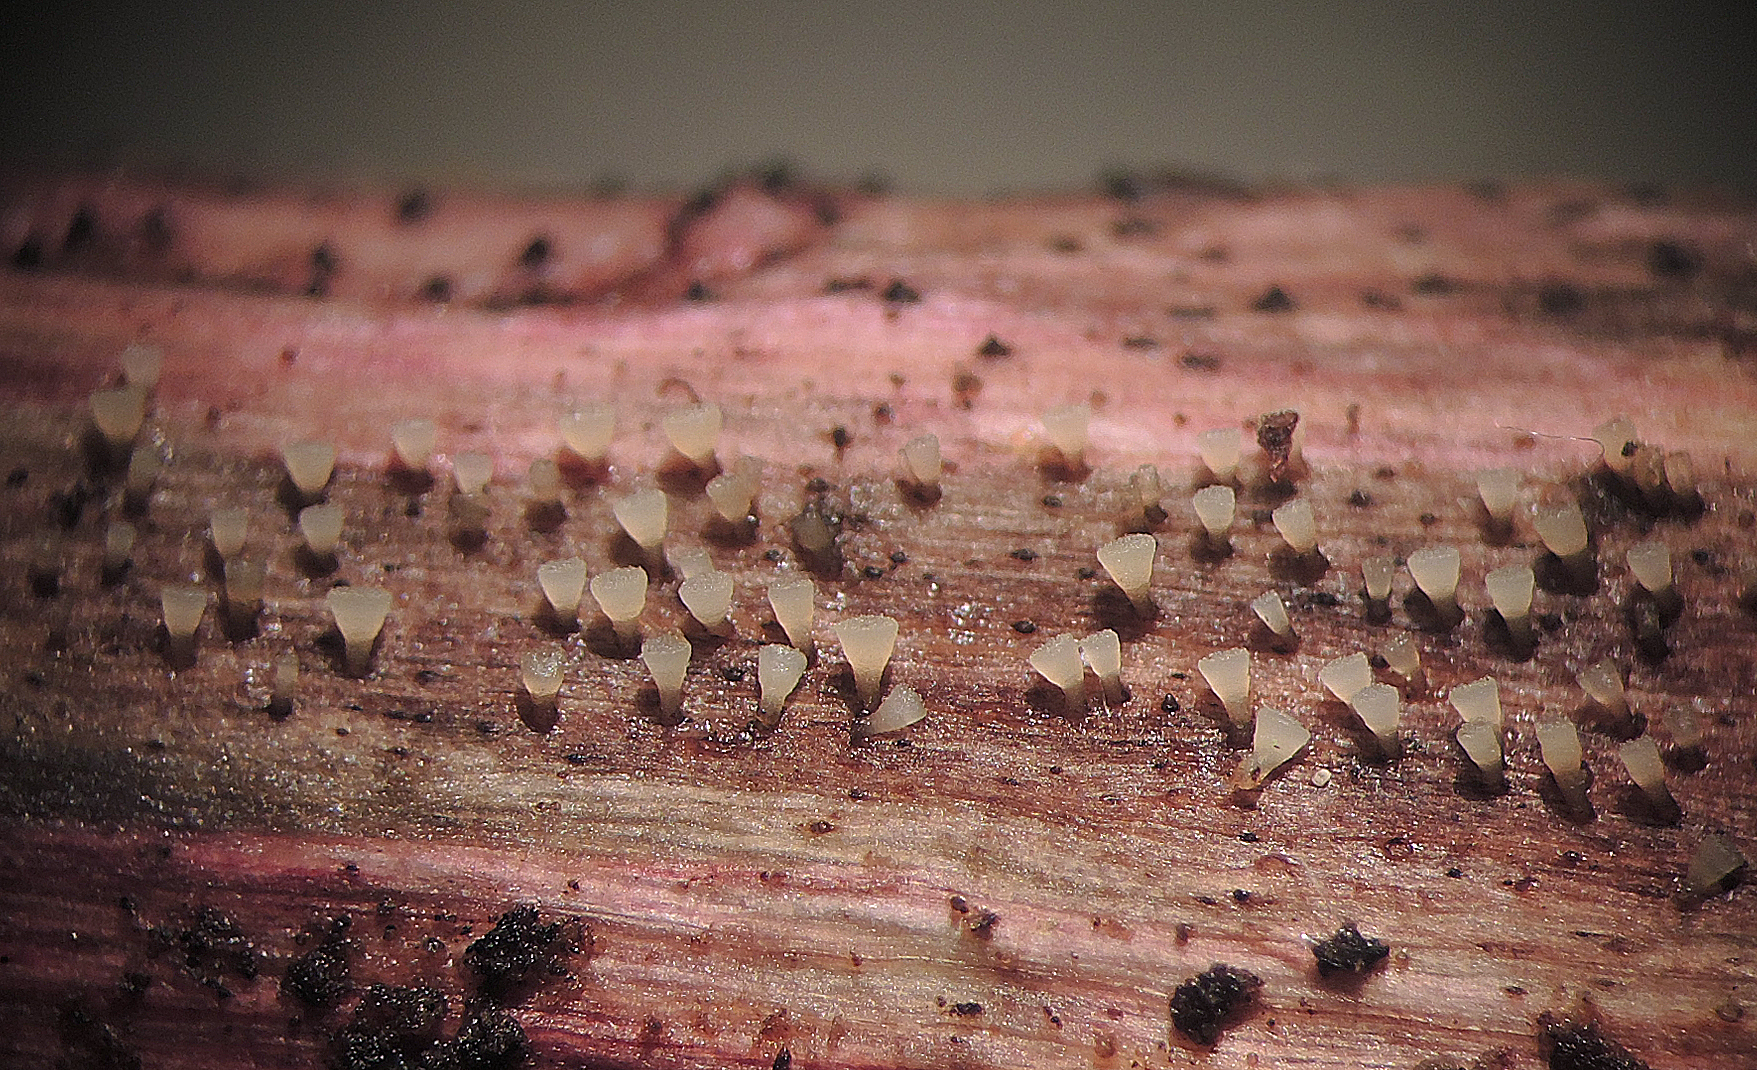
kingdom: Fungi
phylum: Ascomycota
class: Leotiomycetes
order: Helotiales
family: Pezizellaceae
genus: Allophylaria
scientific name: Allophylaria byssacea
